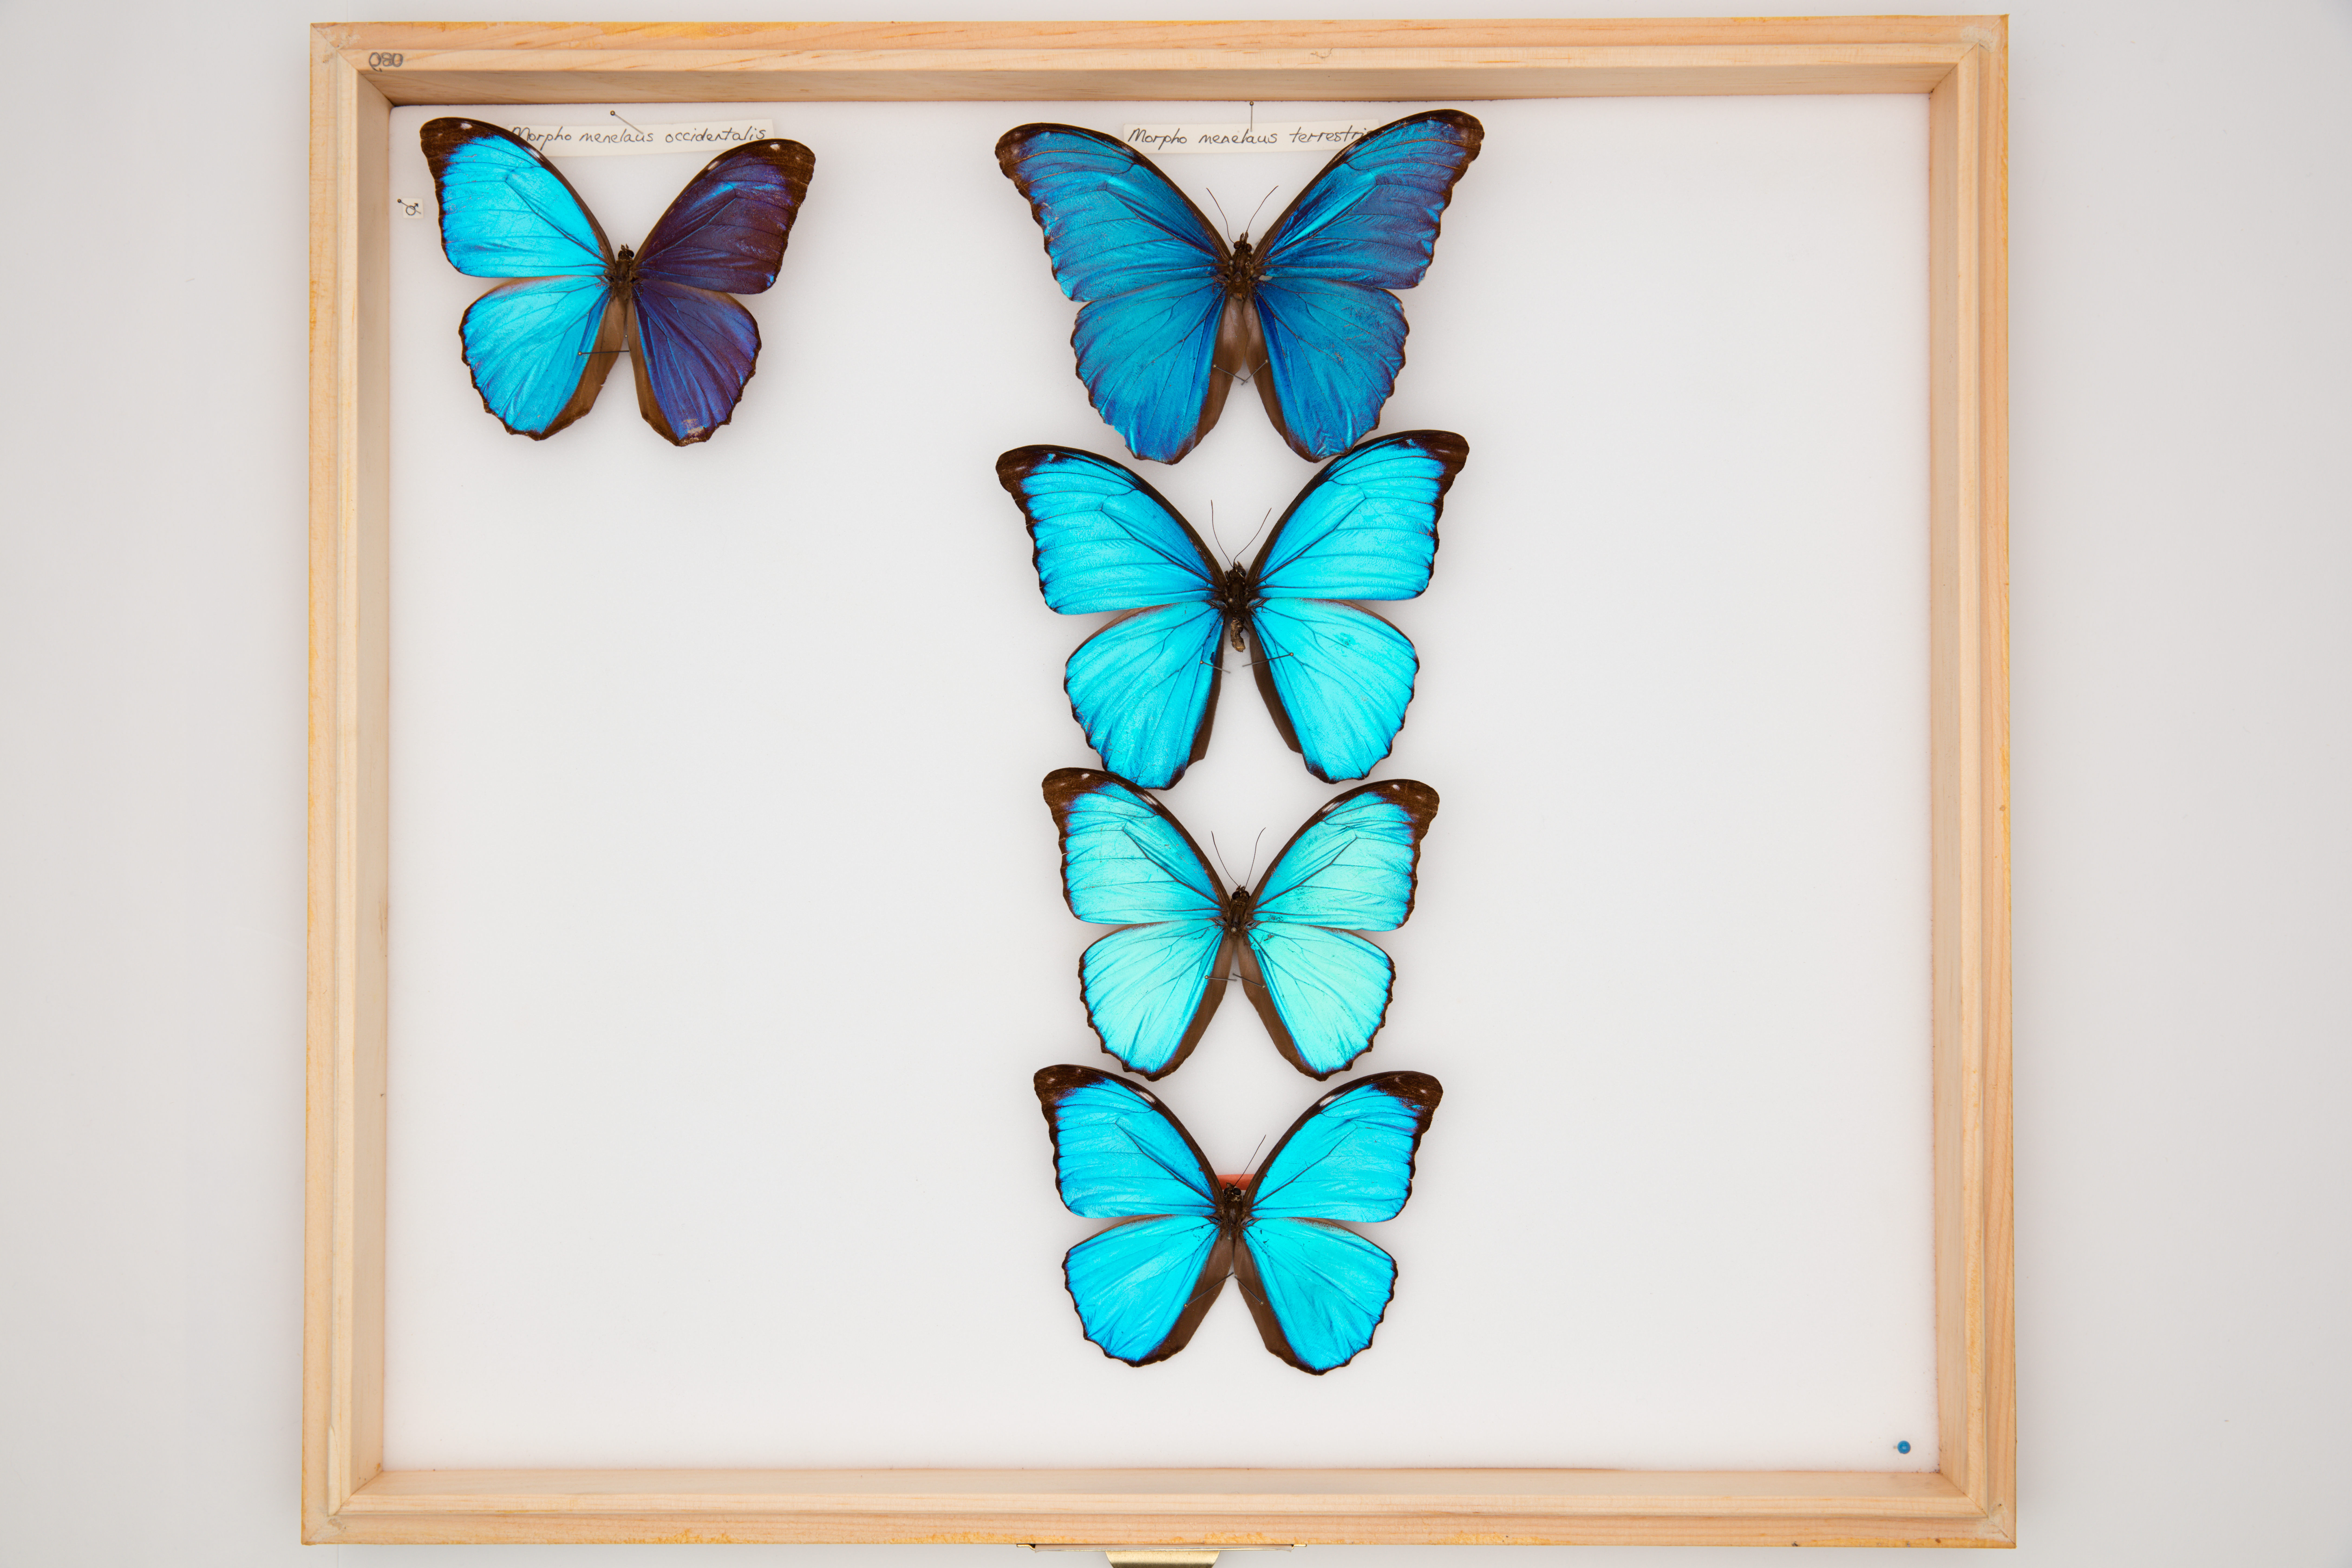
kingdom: Animalia
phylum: Arthropoda
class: Insecta
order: Lepidoptera
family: Nymphalidae
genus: Morpho
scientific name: Morpho menelaus
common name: Menelaus morpho
